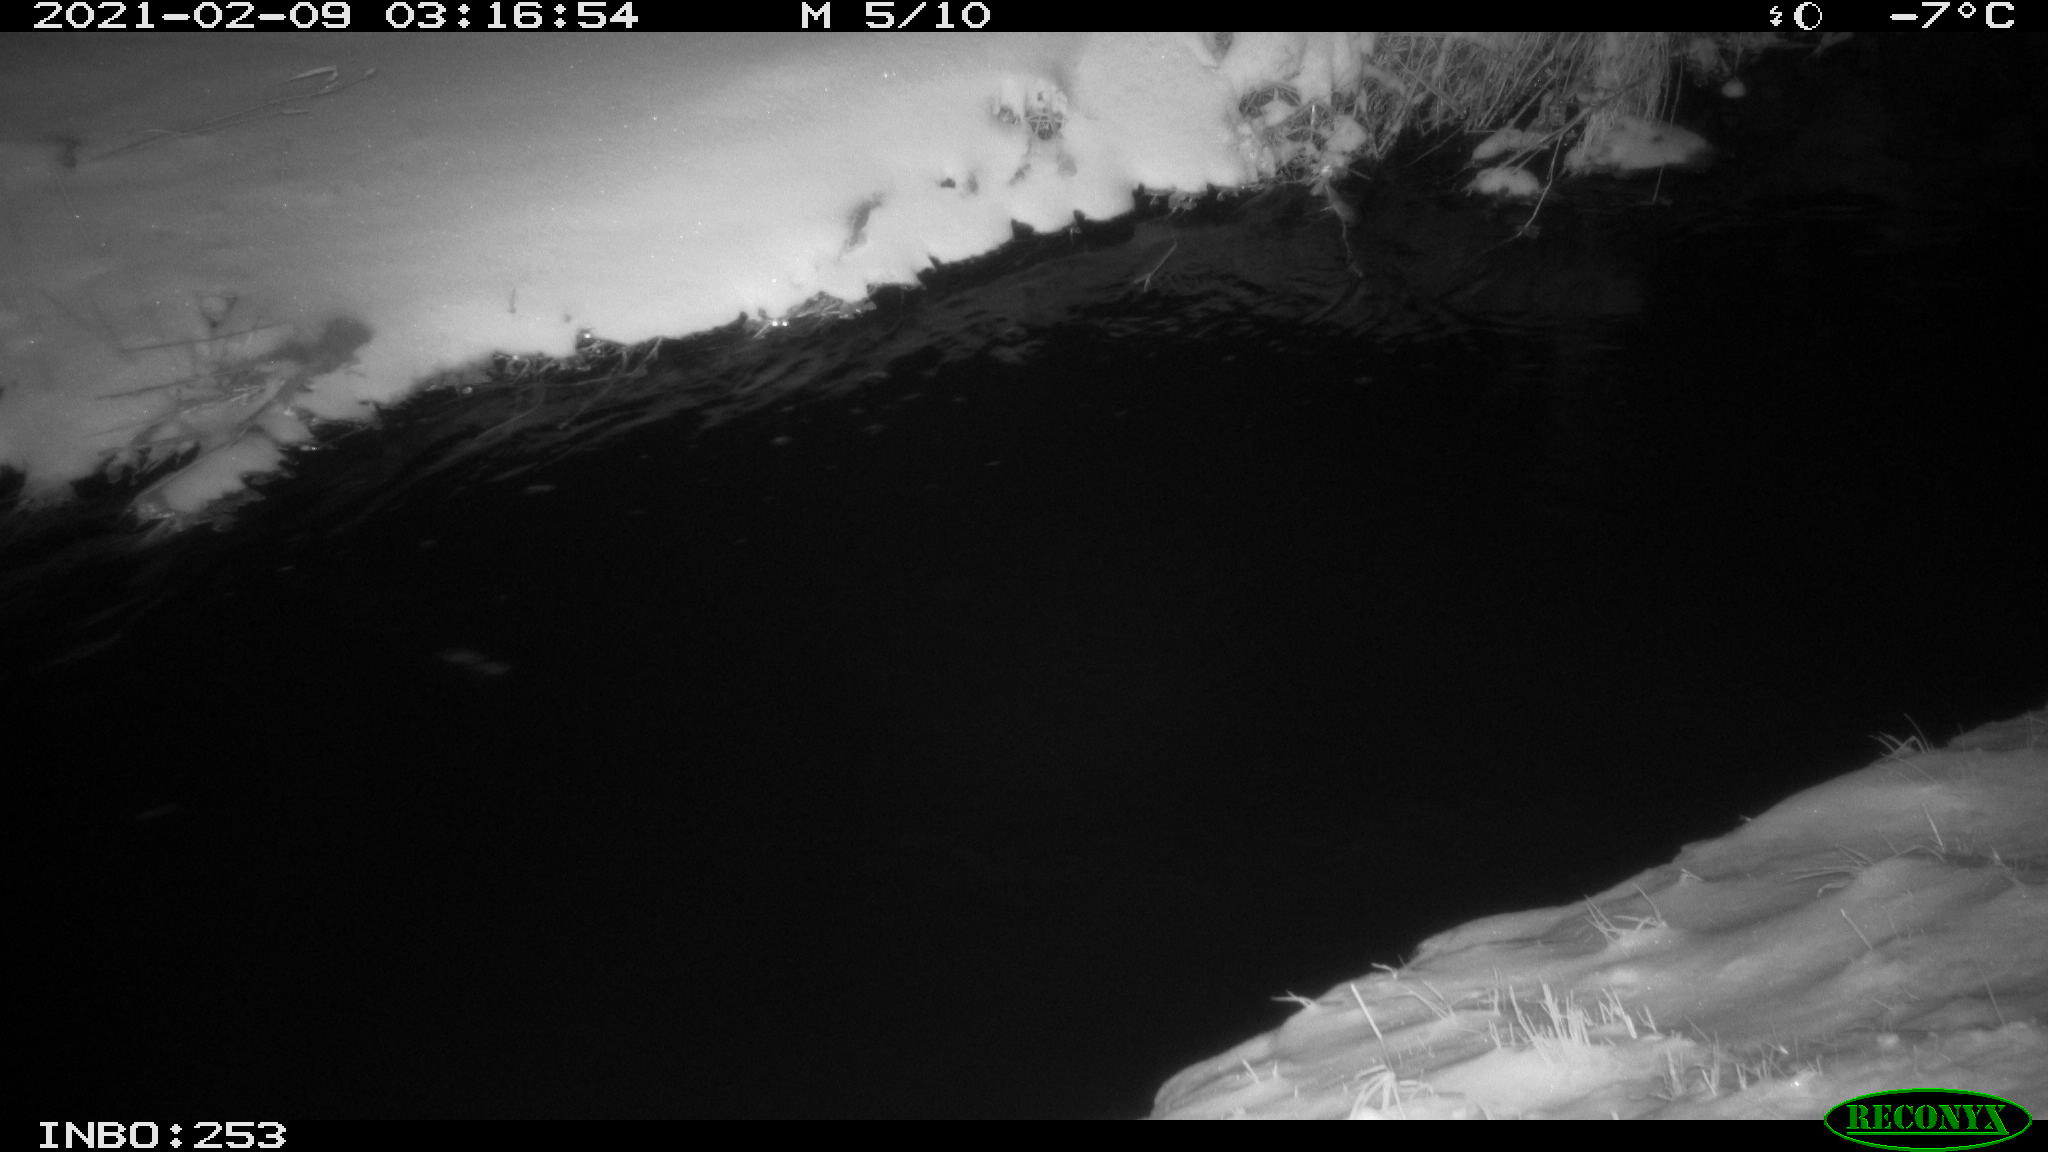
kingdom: Animalia
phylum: Chordata
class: Aves
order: Anseriformes
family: Anatidae
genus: Anas
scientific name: Anas platyrhynchos
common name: Mallard
